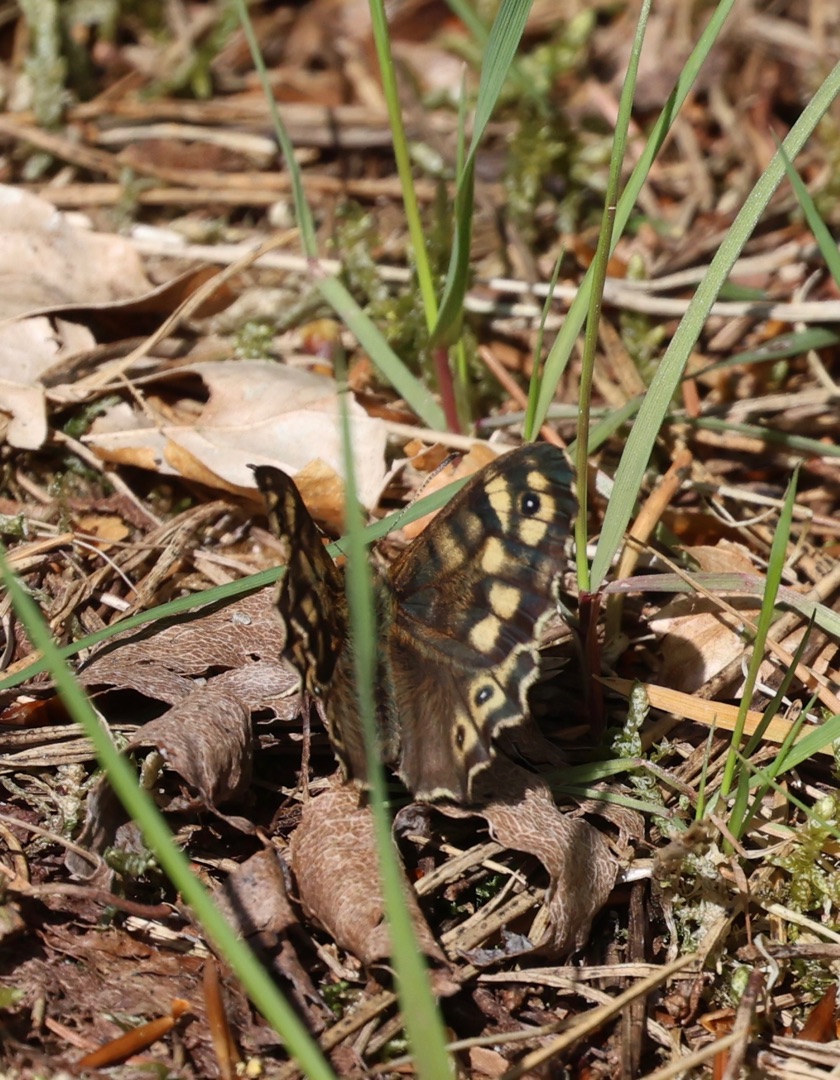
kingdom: Animalia
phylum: Arthropoda
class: Insecta
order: Lepidoptera
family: Nymphalidae
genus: Pararge
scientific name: Pararge aegeria
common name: Skovrandøje
